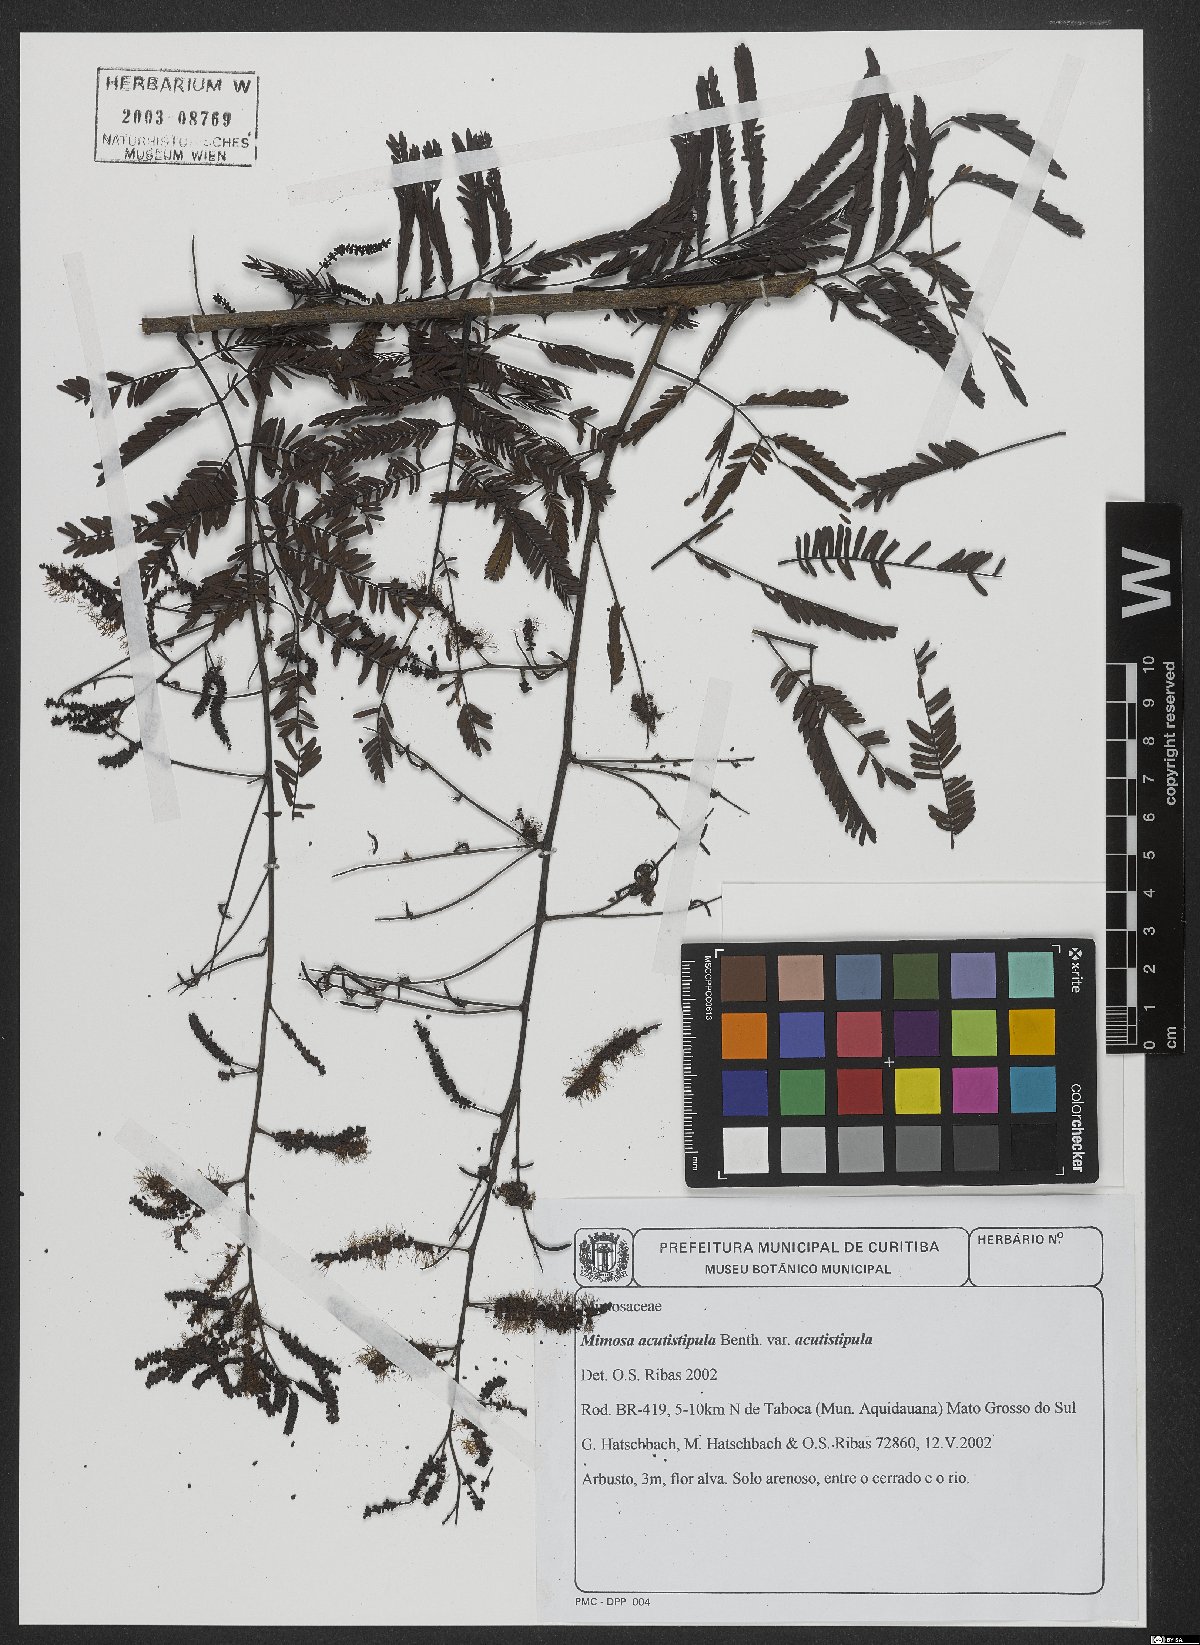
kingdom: Plantae
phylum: Tracheophyta
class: Magnoliopsida
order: Fabales
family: Fabaceae
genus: Mimosa
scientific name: Mimosa acutistipula
